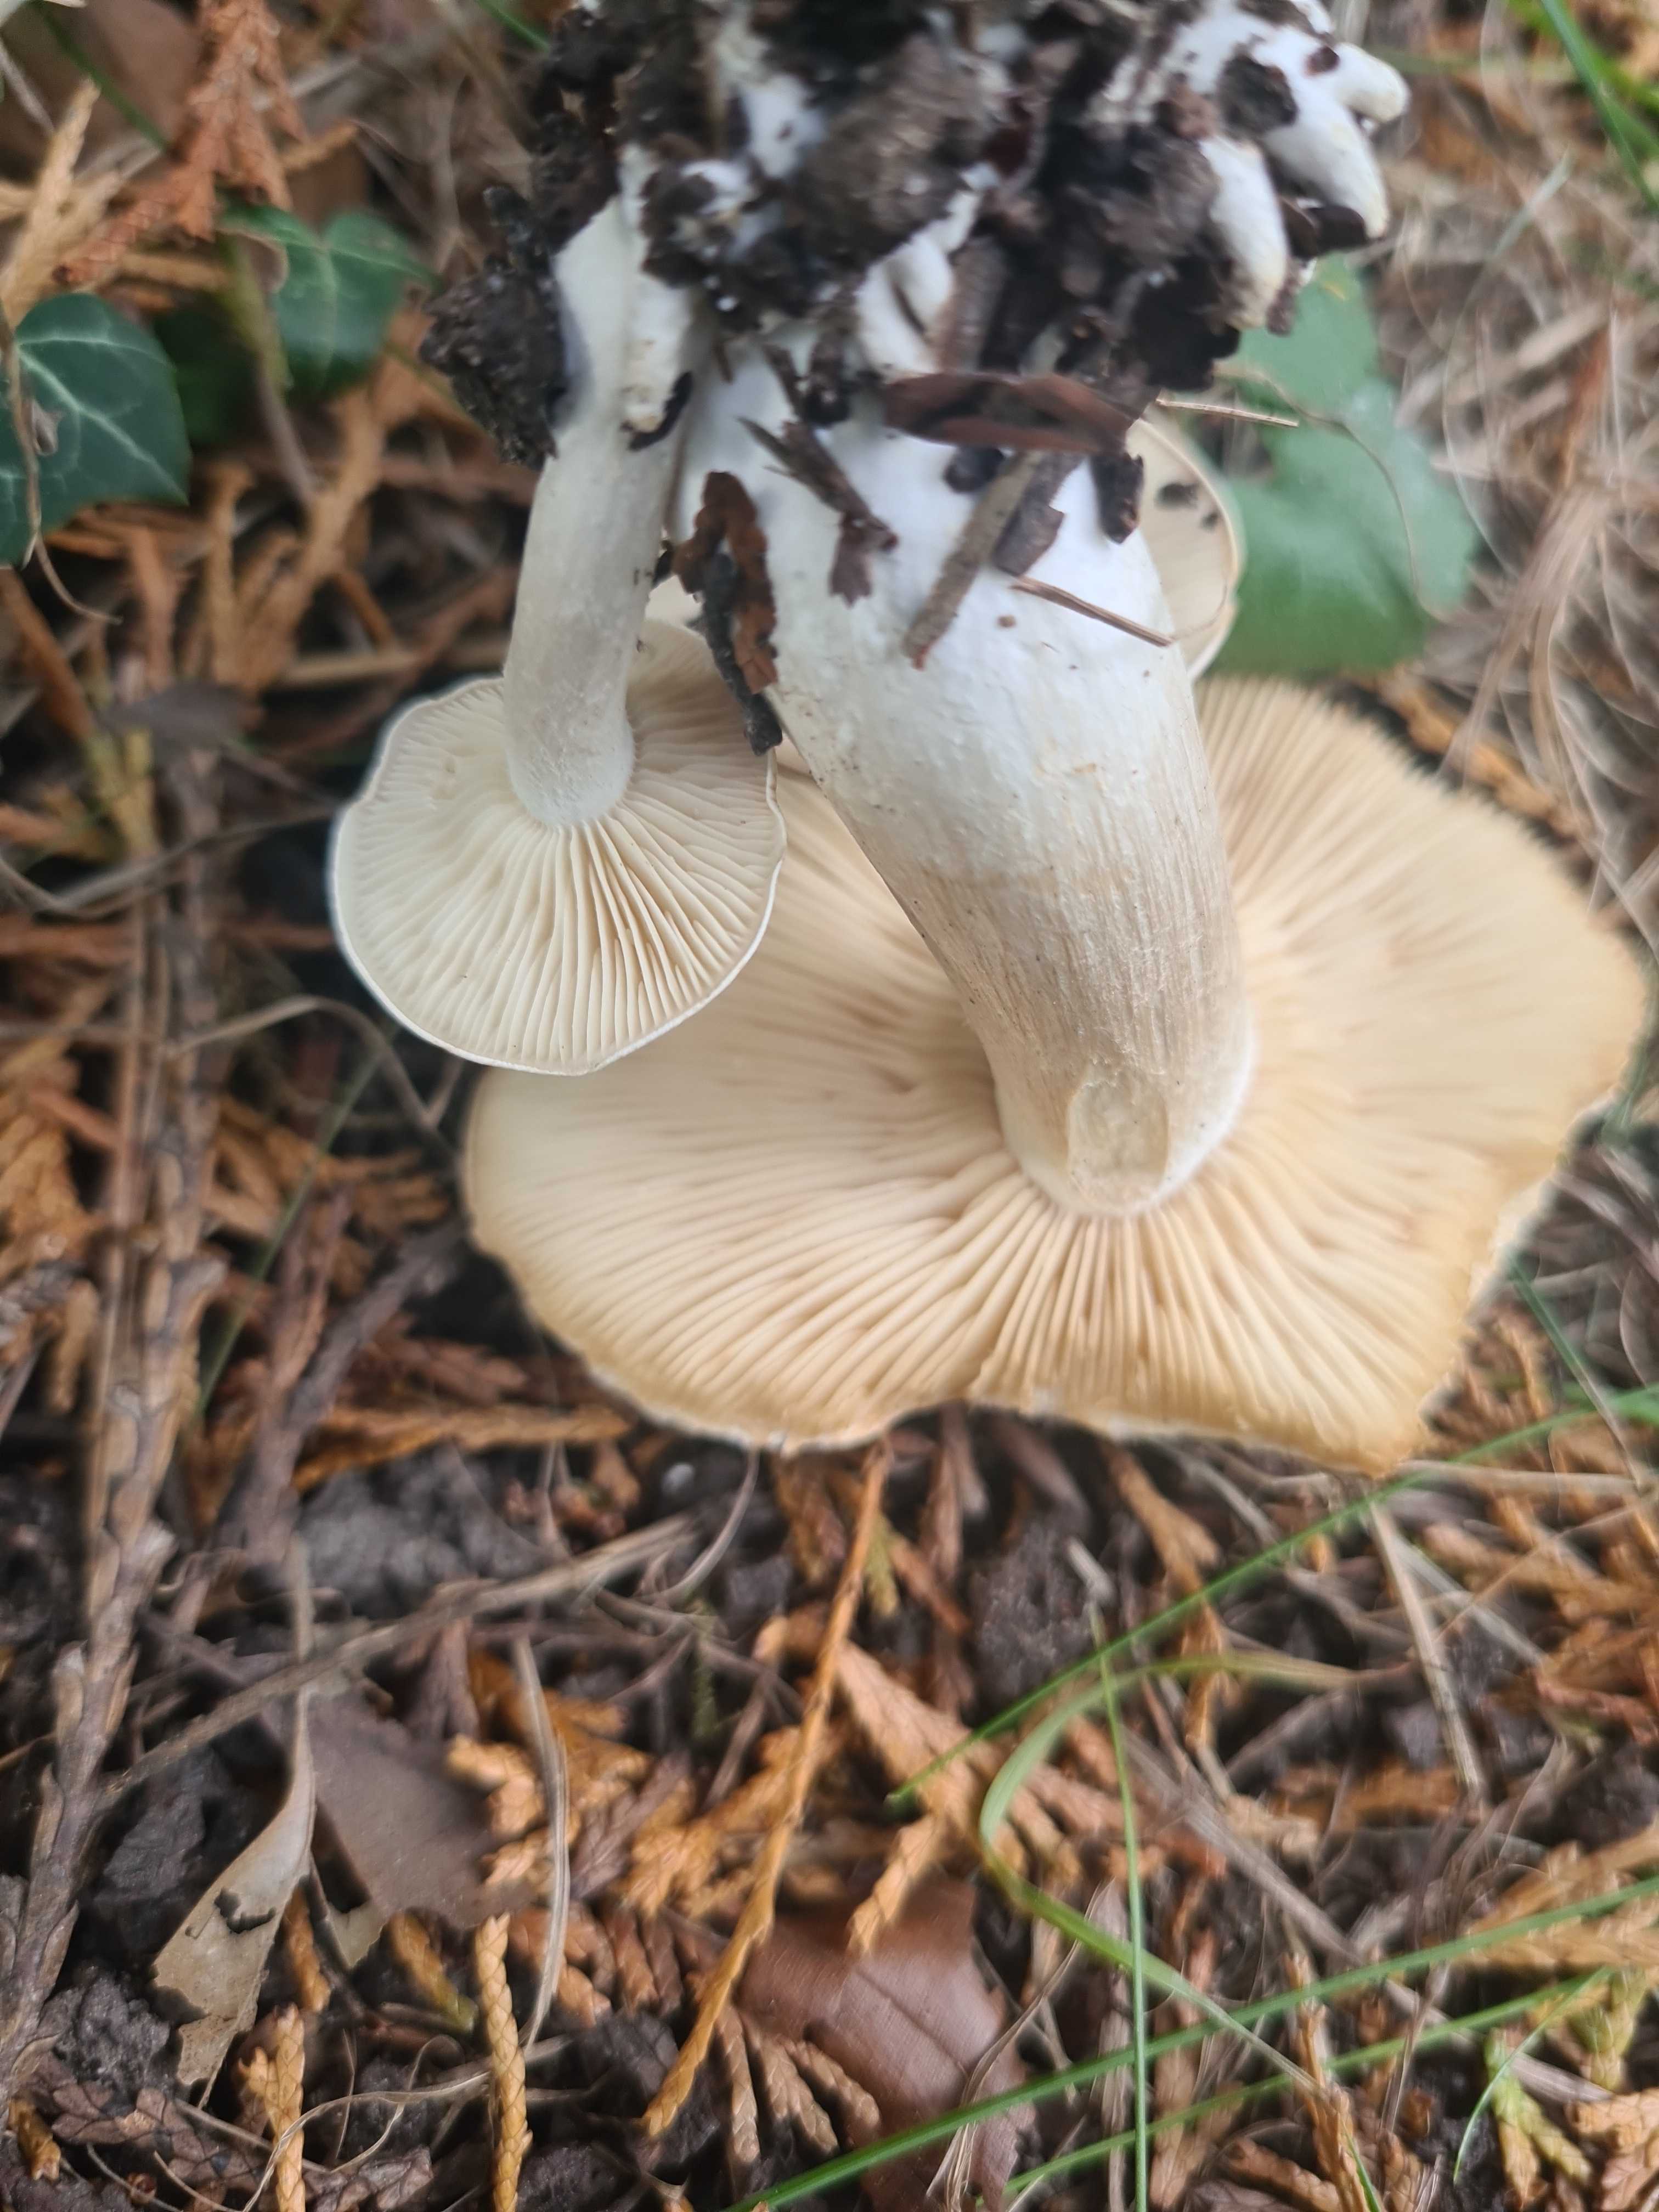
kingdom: Fungi
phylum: Basidiomycota
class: Agaricomycetes
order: Agaricales
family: Lyophyllaceae
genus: Lyophyllum
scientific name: Lyophyllum
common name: gråblad
